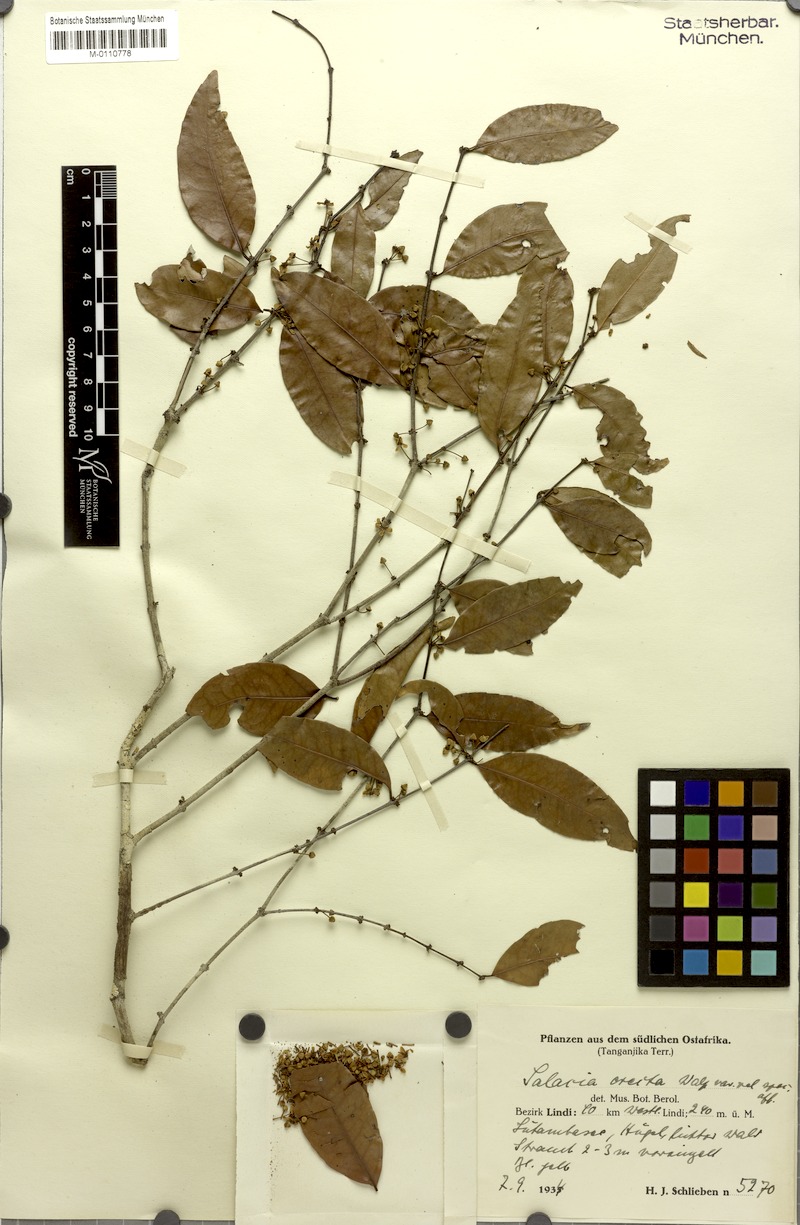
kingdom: Plantae
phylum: Tracheophyta
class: Magnoliopsida
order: Celastrales
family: Celastraceae
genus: Salacia
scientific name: Salacia erecta
